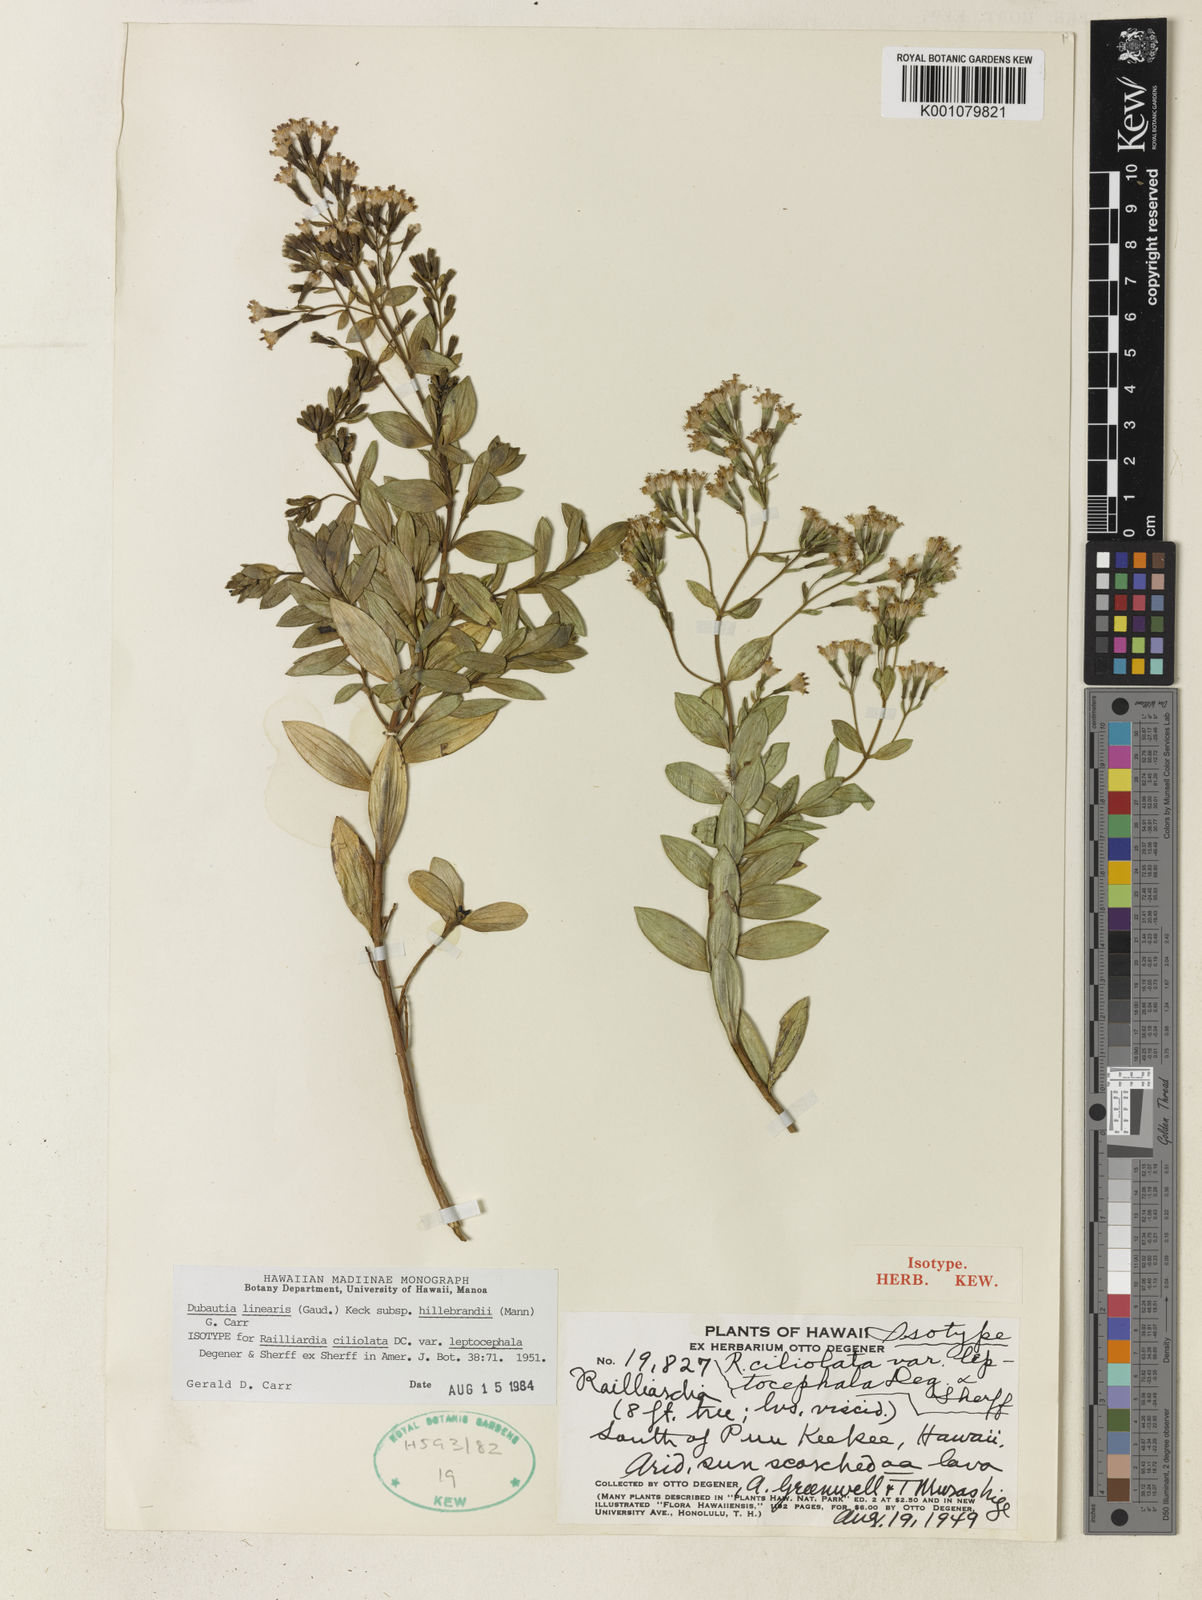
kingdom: Plantae
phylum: Tracheophyta
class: Magnoliopsida
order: Asterales
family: Asteraceae
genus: Dubautia
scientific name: Dubautia linearis
